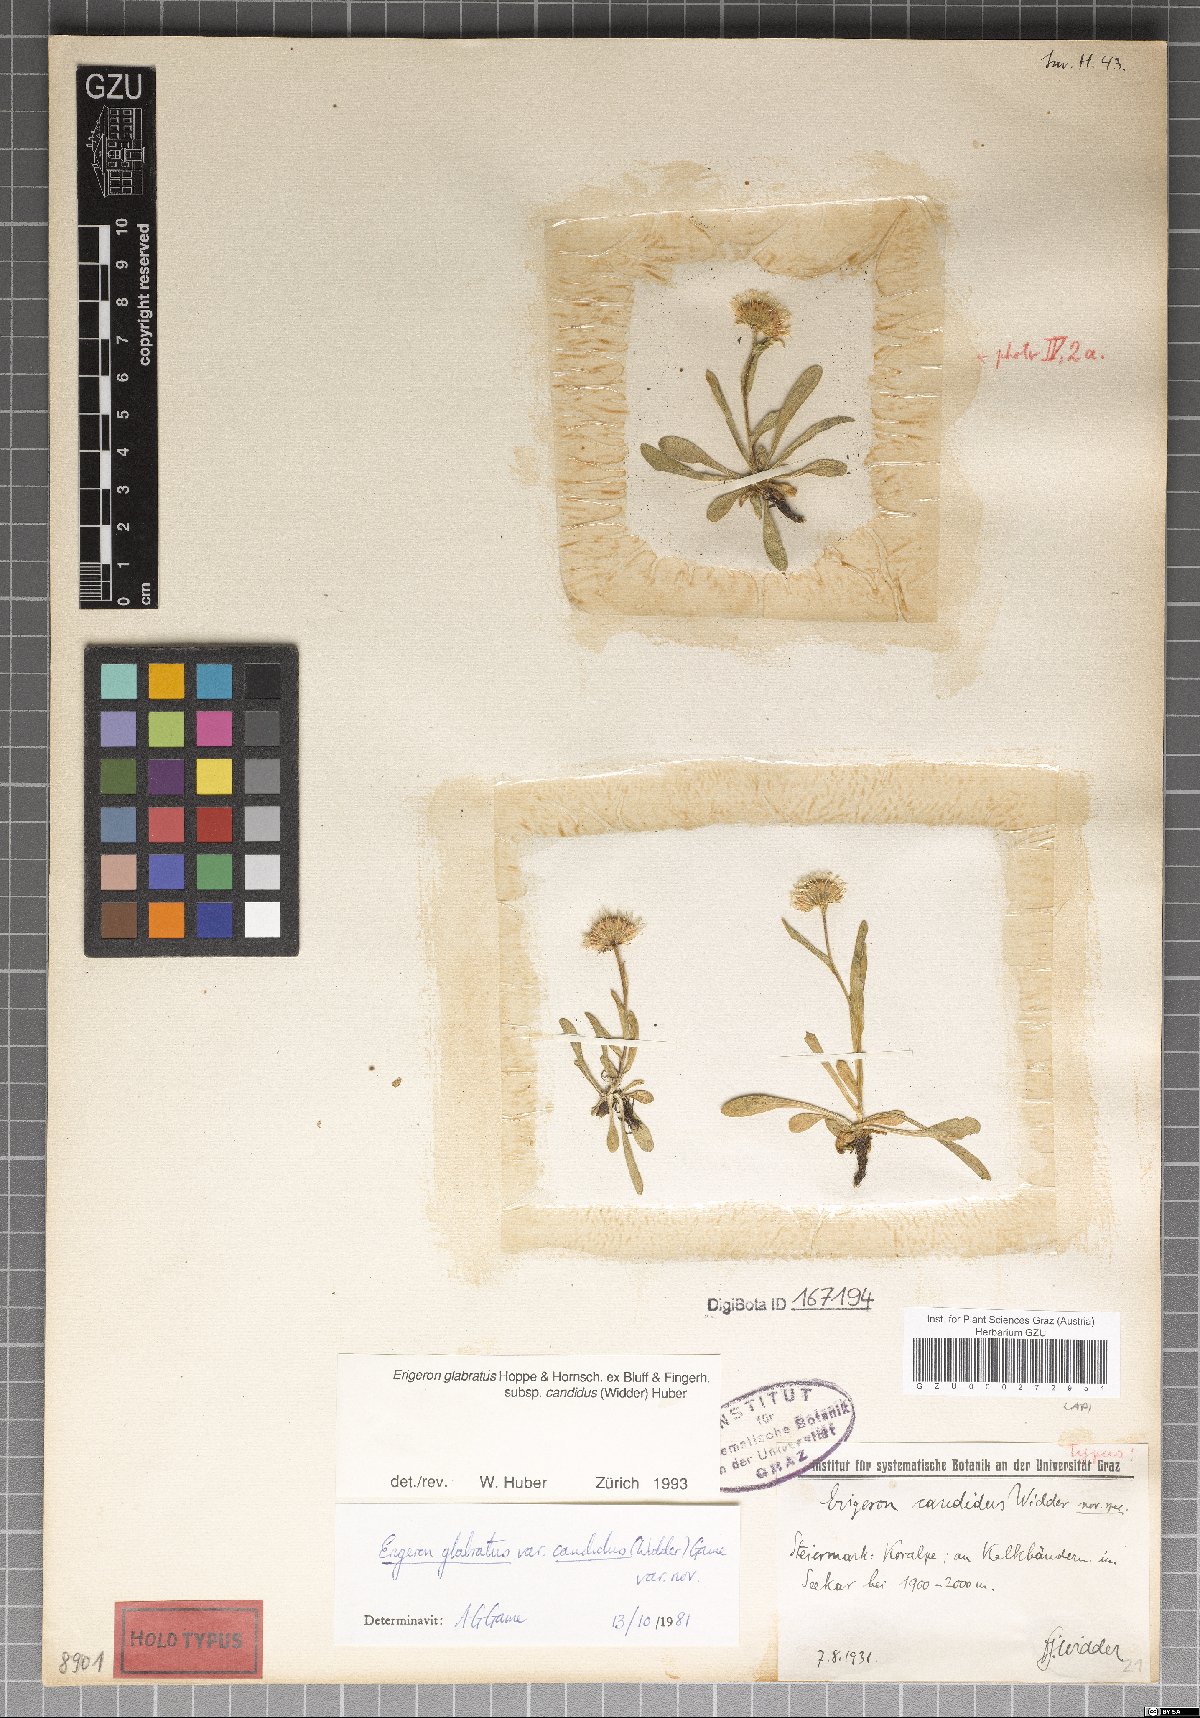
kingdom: Plantae
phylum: Tracheophyta
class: Magnoliopsida
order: Asterales
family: Asteraceae
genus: Erigeron
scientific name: Erigeron glabratus
